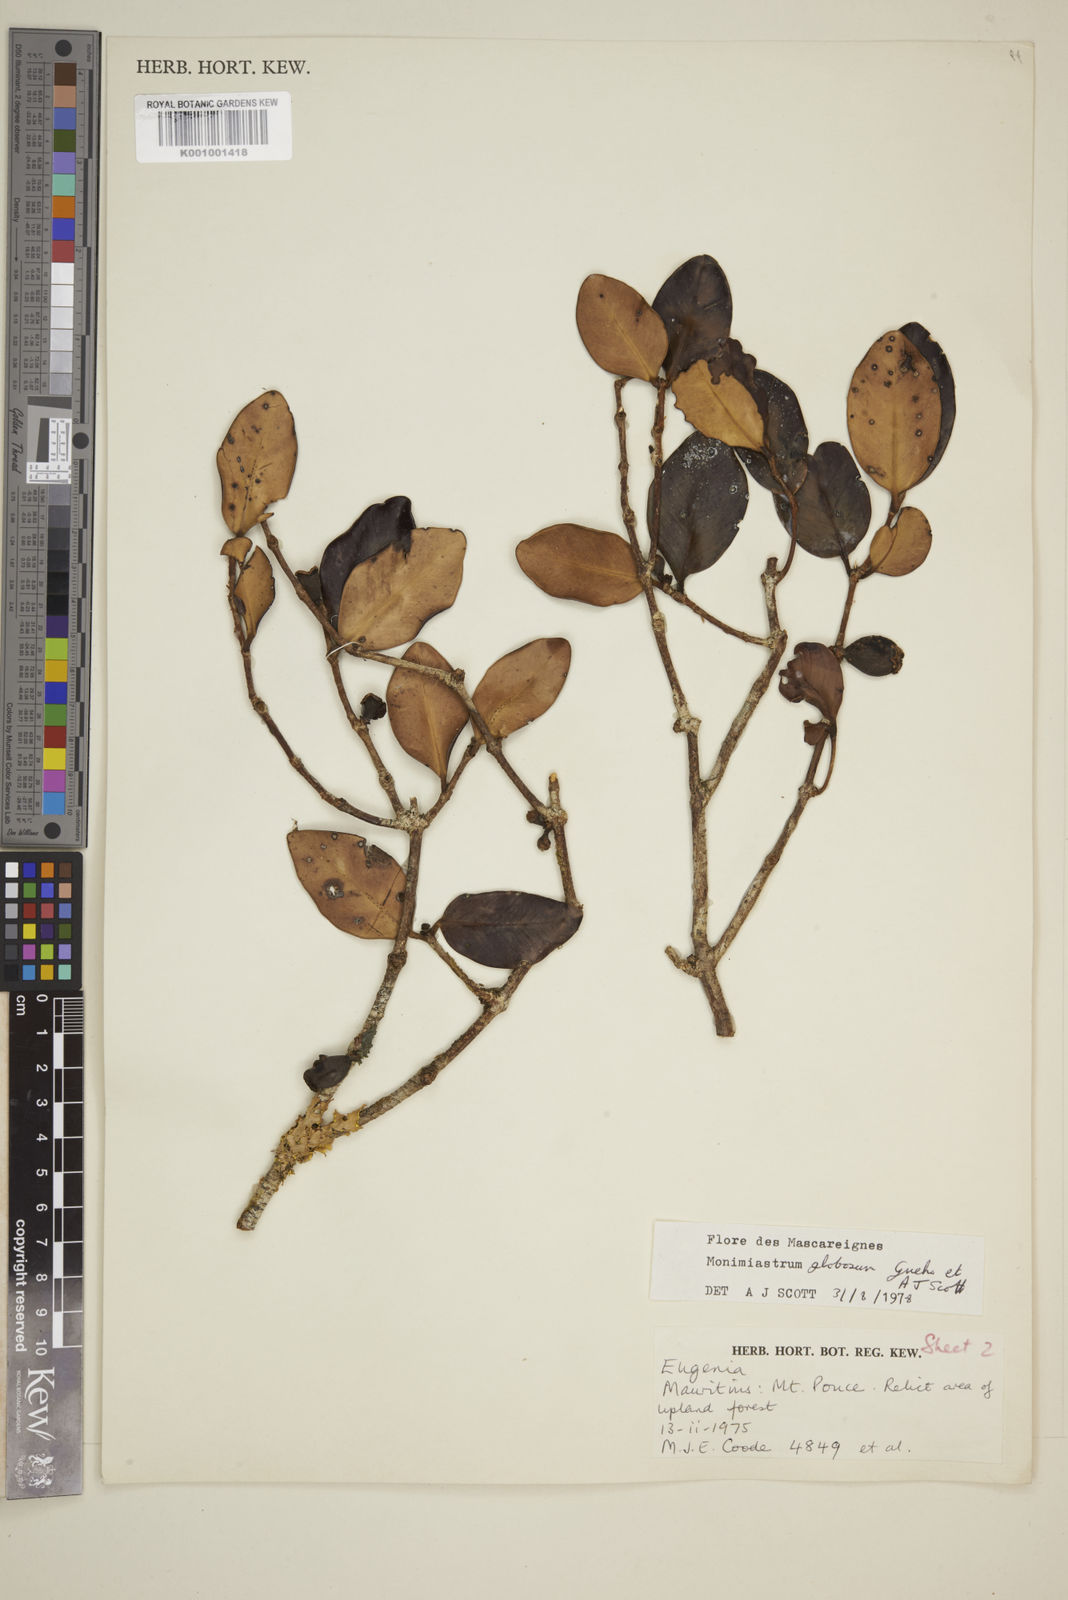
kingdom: Plantae
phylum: Tracheophyta
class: Magnoliopsida
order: Myrtales
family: Myrtaceae
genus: Eugenia
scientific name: Eugenia kanakana
